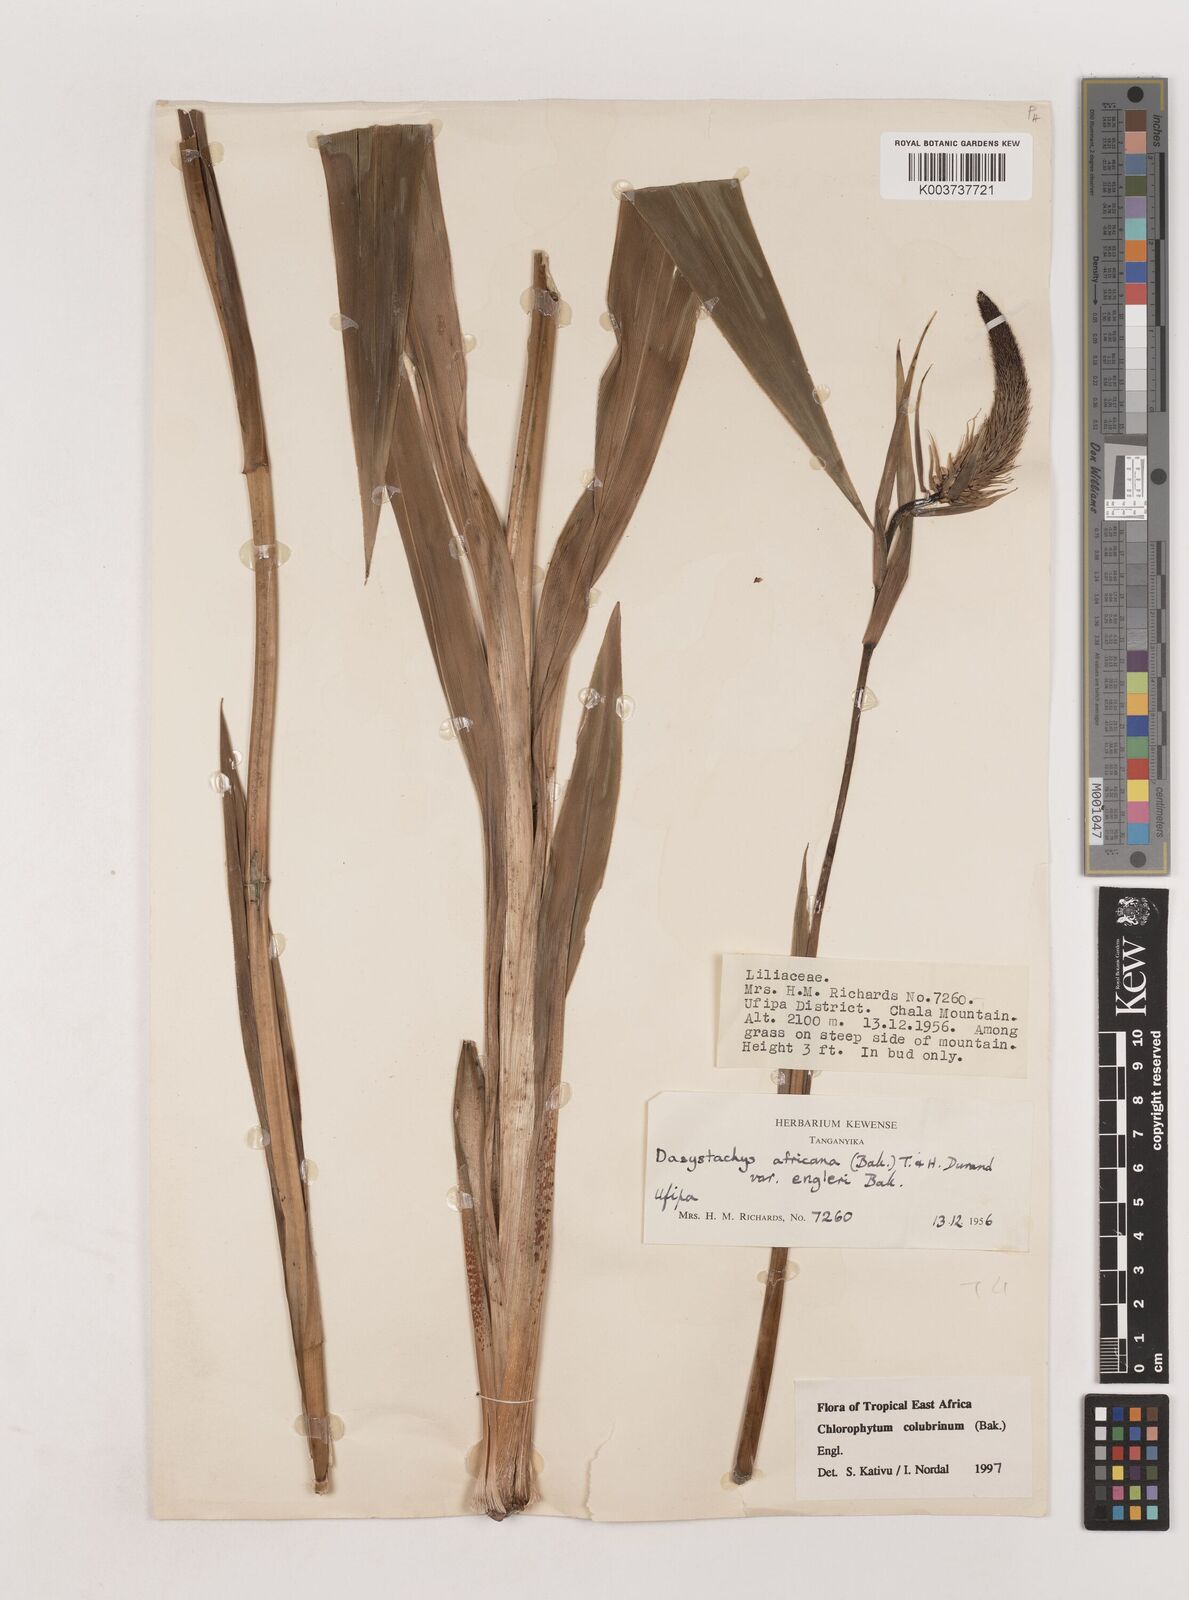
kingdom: Plantae
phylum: Tracheophyta
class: Liliopsida
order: Asparagales
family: Asparagaceae
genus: Chlorophytum
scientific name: Chlorophytum colubrinum
